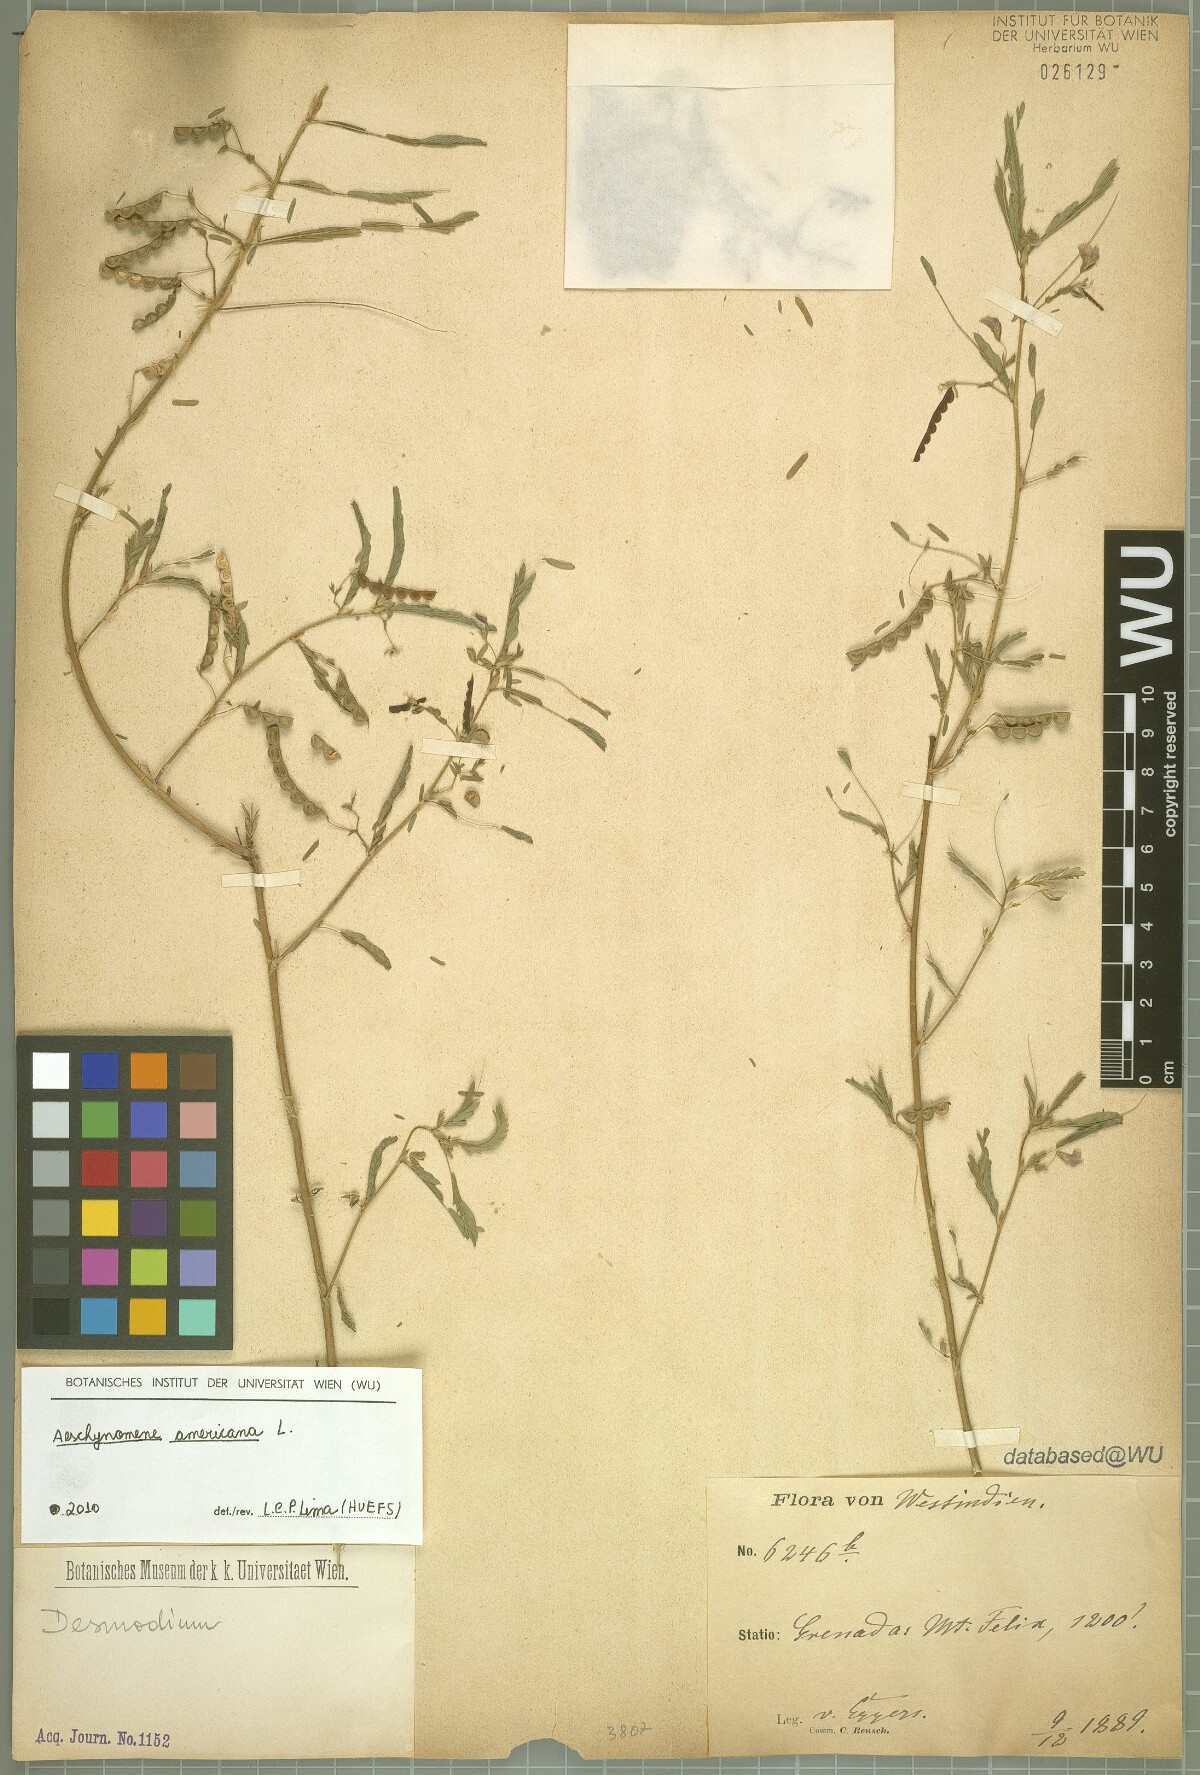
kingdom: Plantae
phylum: Tracheophyta
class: Magnoliopsida
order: Fabales
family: Fabaceae
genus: Aeschynomene
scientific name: Aeschynomene americana
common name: Joint-vetch
